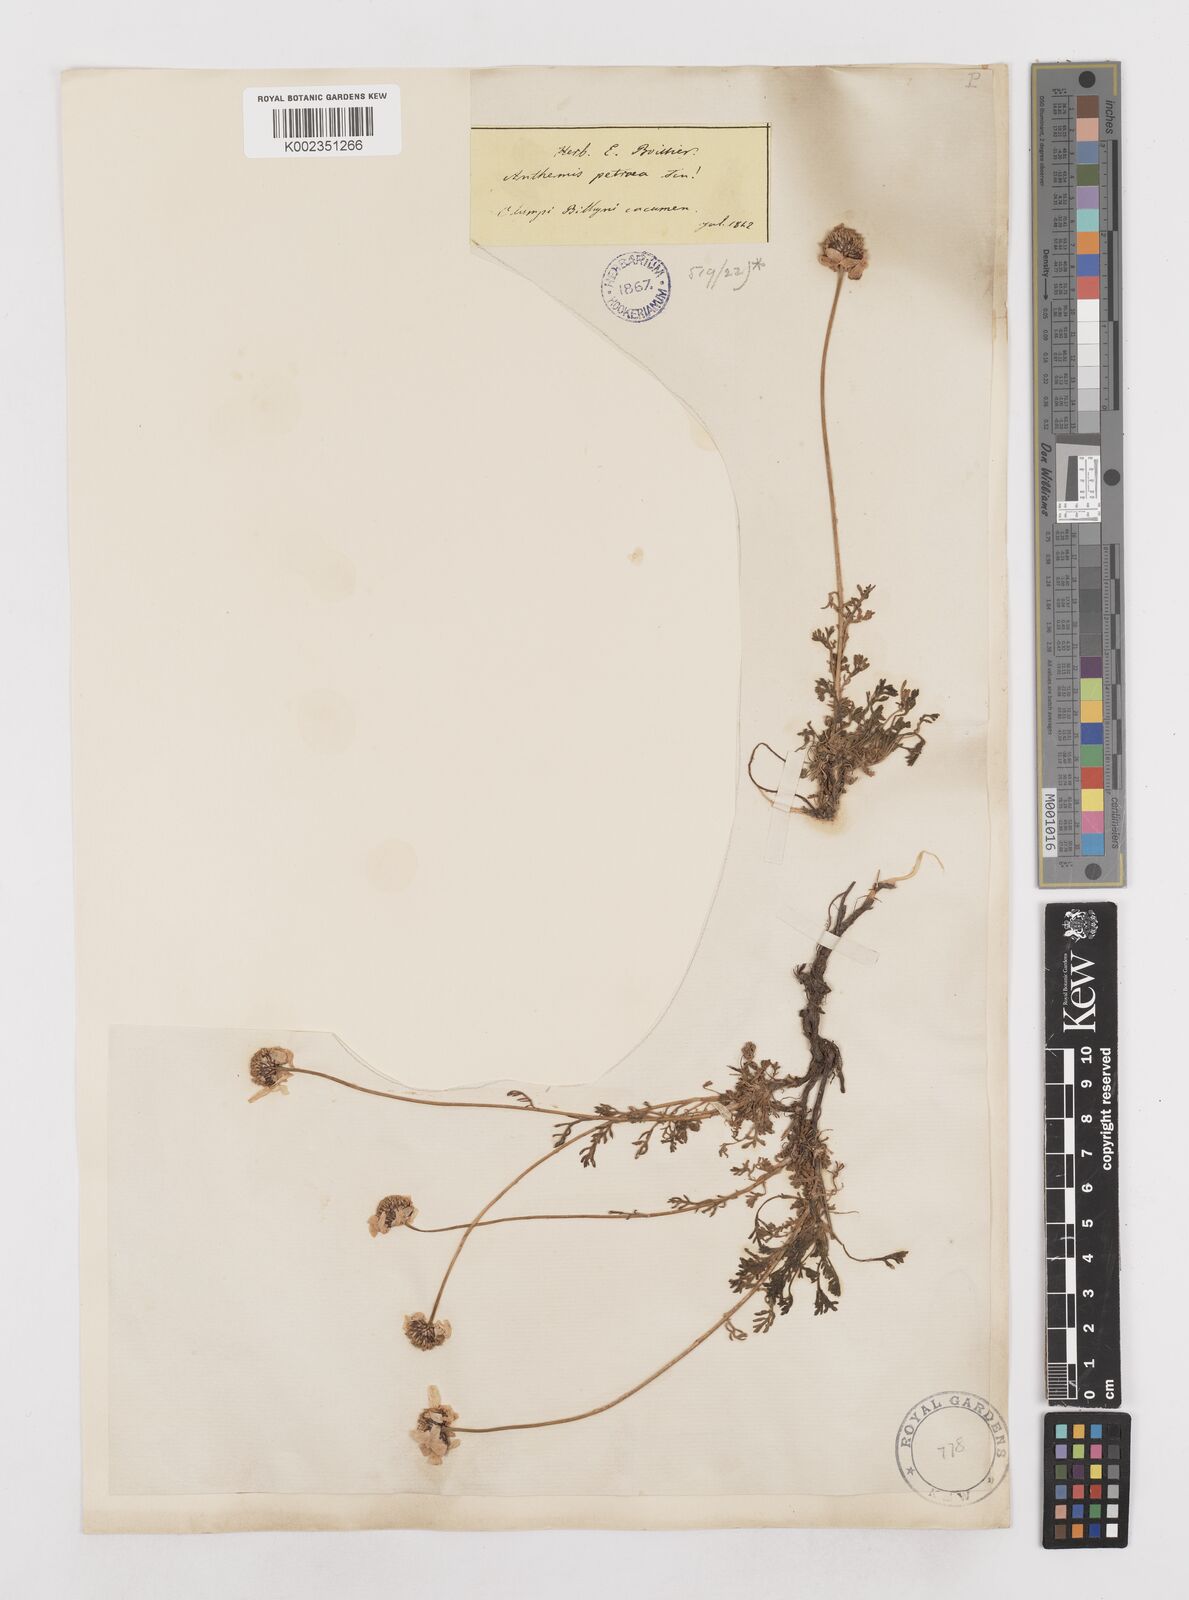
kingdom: Plantae
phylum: Tracheophyta
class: Magnoliopsida
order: Asterales
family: Asteraceae
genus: Anthemis
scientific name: Anthemis cretica
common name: Mountain dog-daisy
